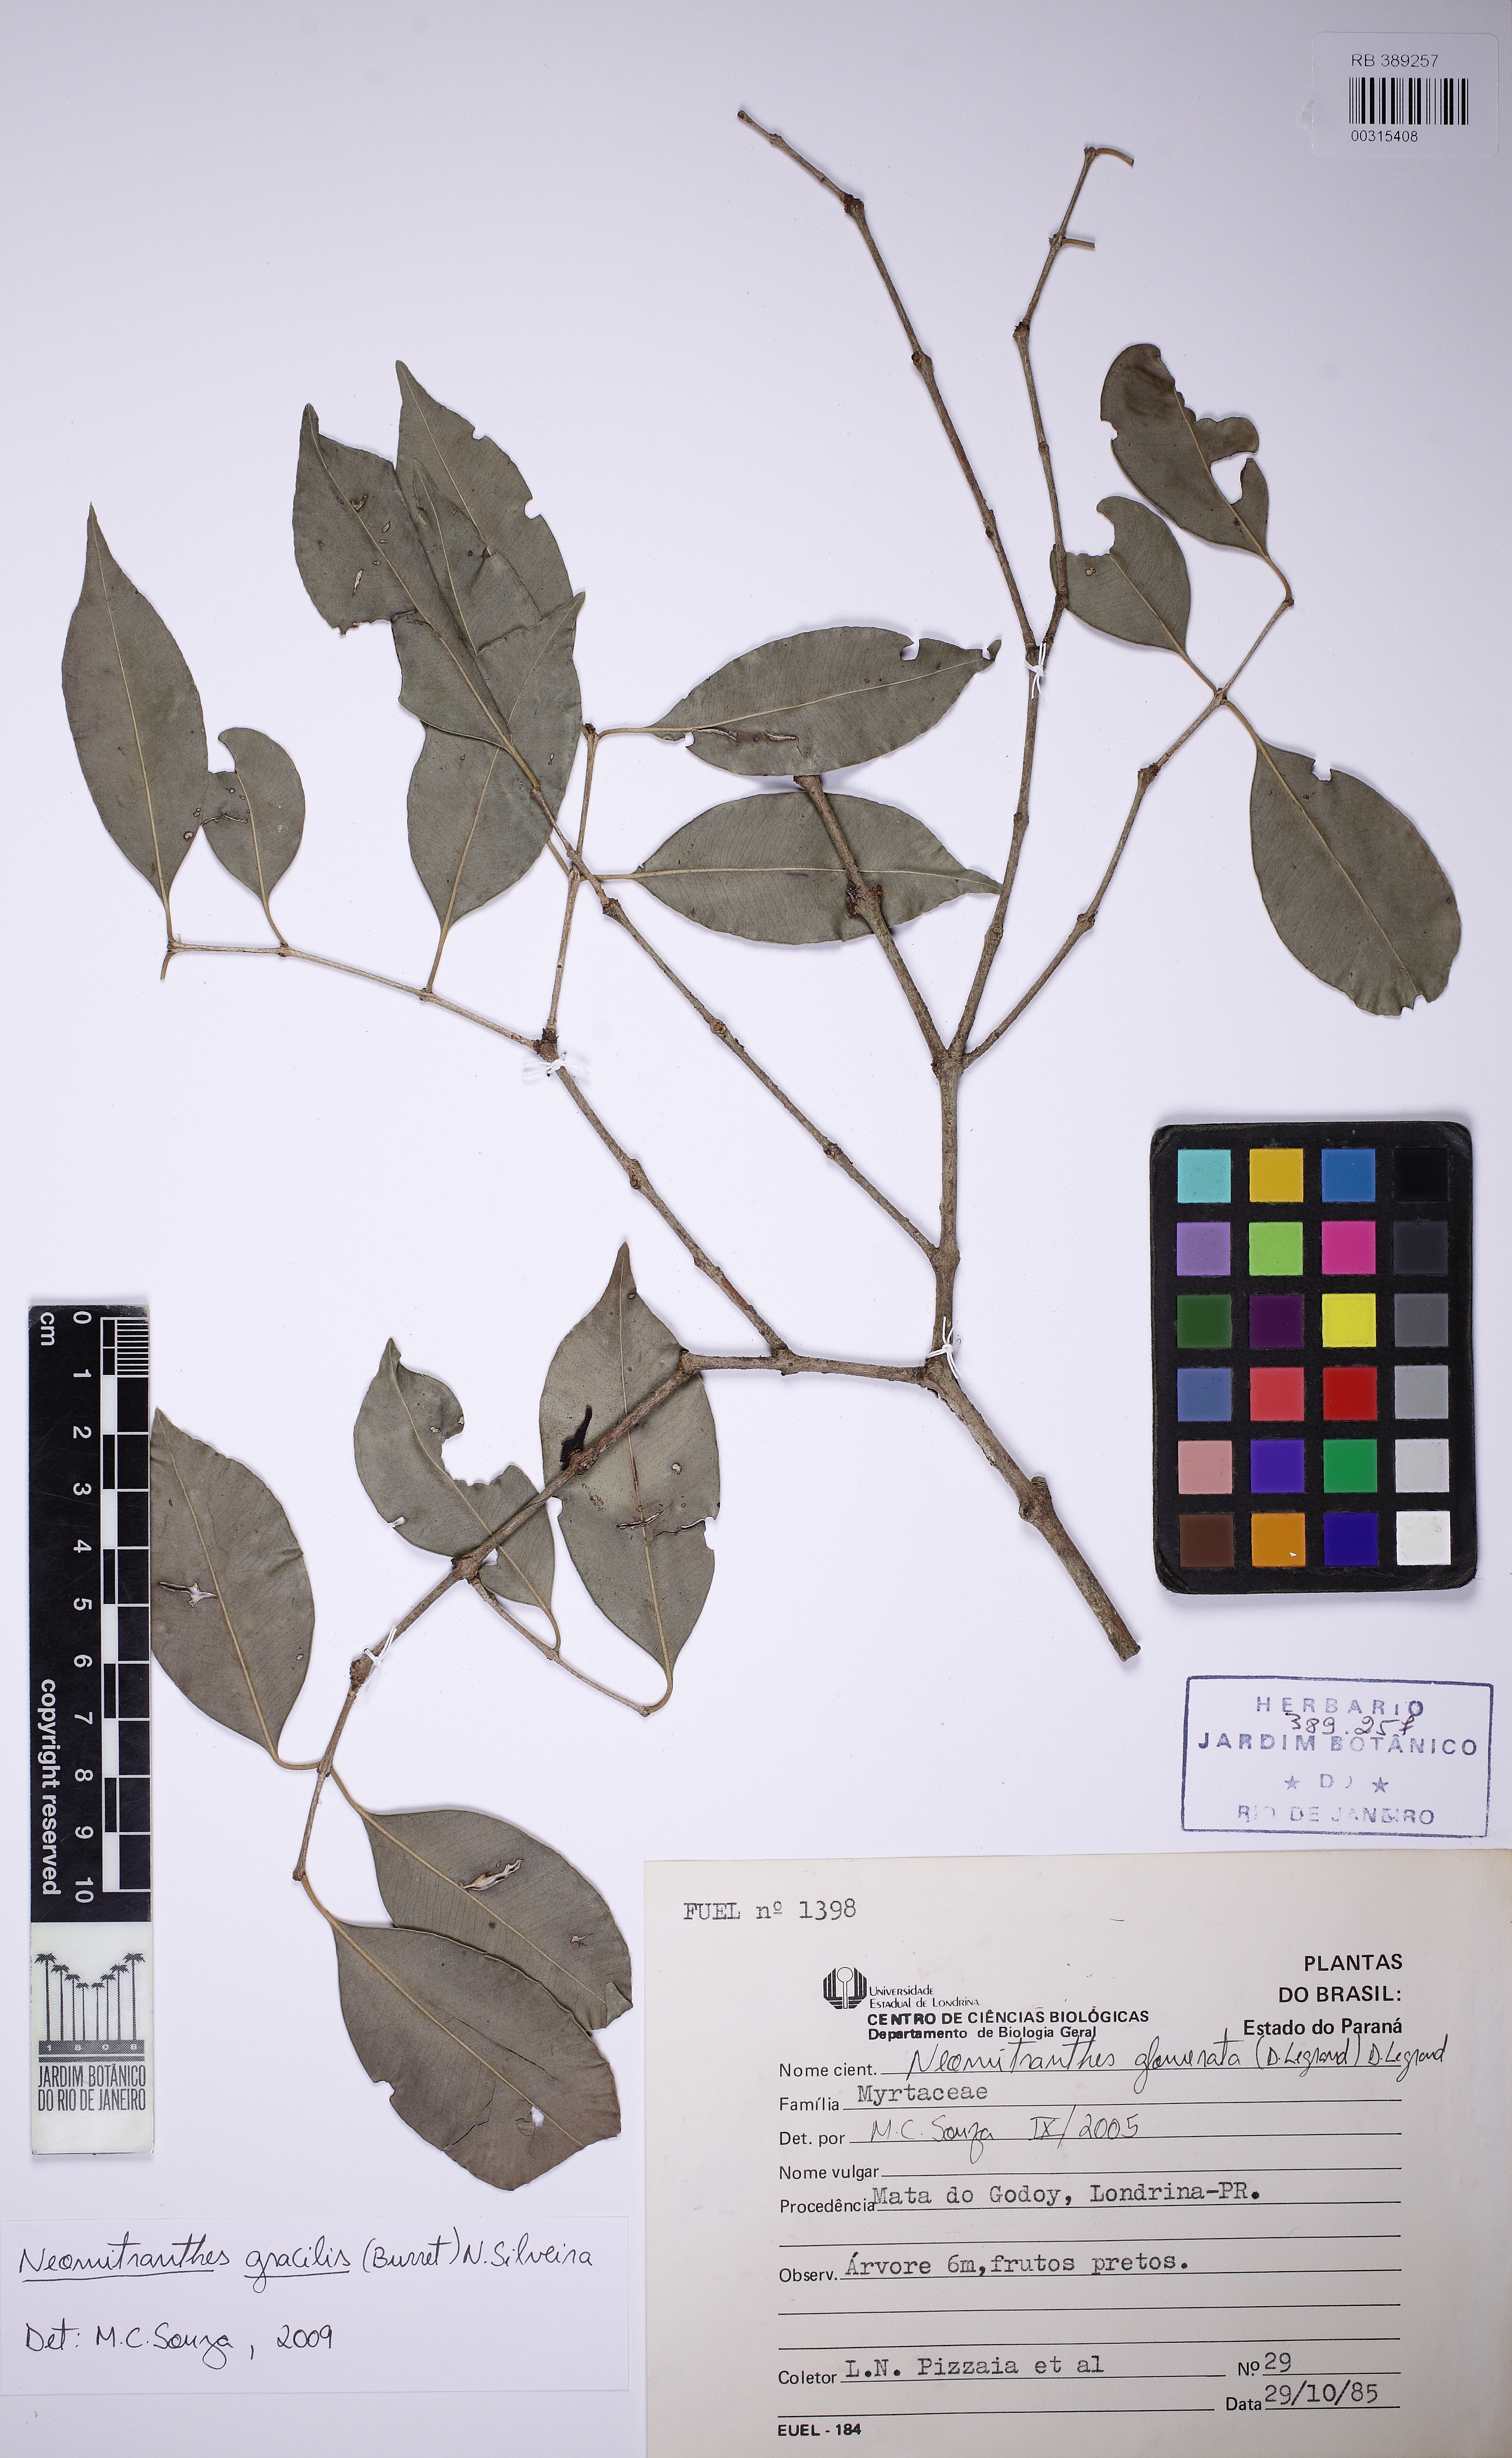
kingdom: Plantae
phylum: Tracheophyta
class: Magnoliopsida
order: Myrtales
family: Myrtaceae
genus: Neomitranthes
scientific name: Neomitranthes glomerata
